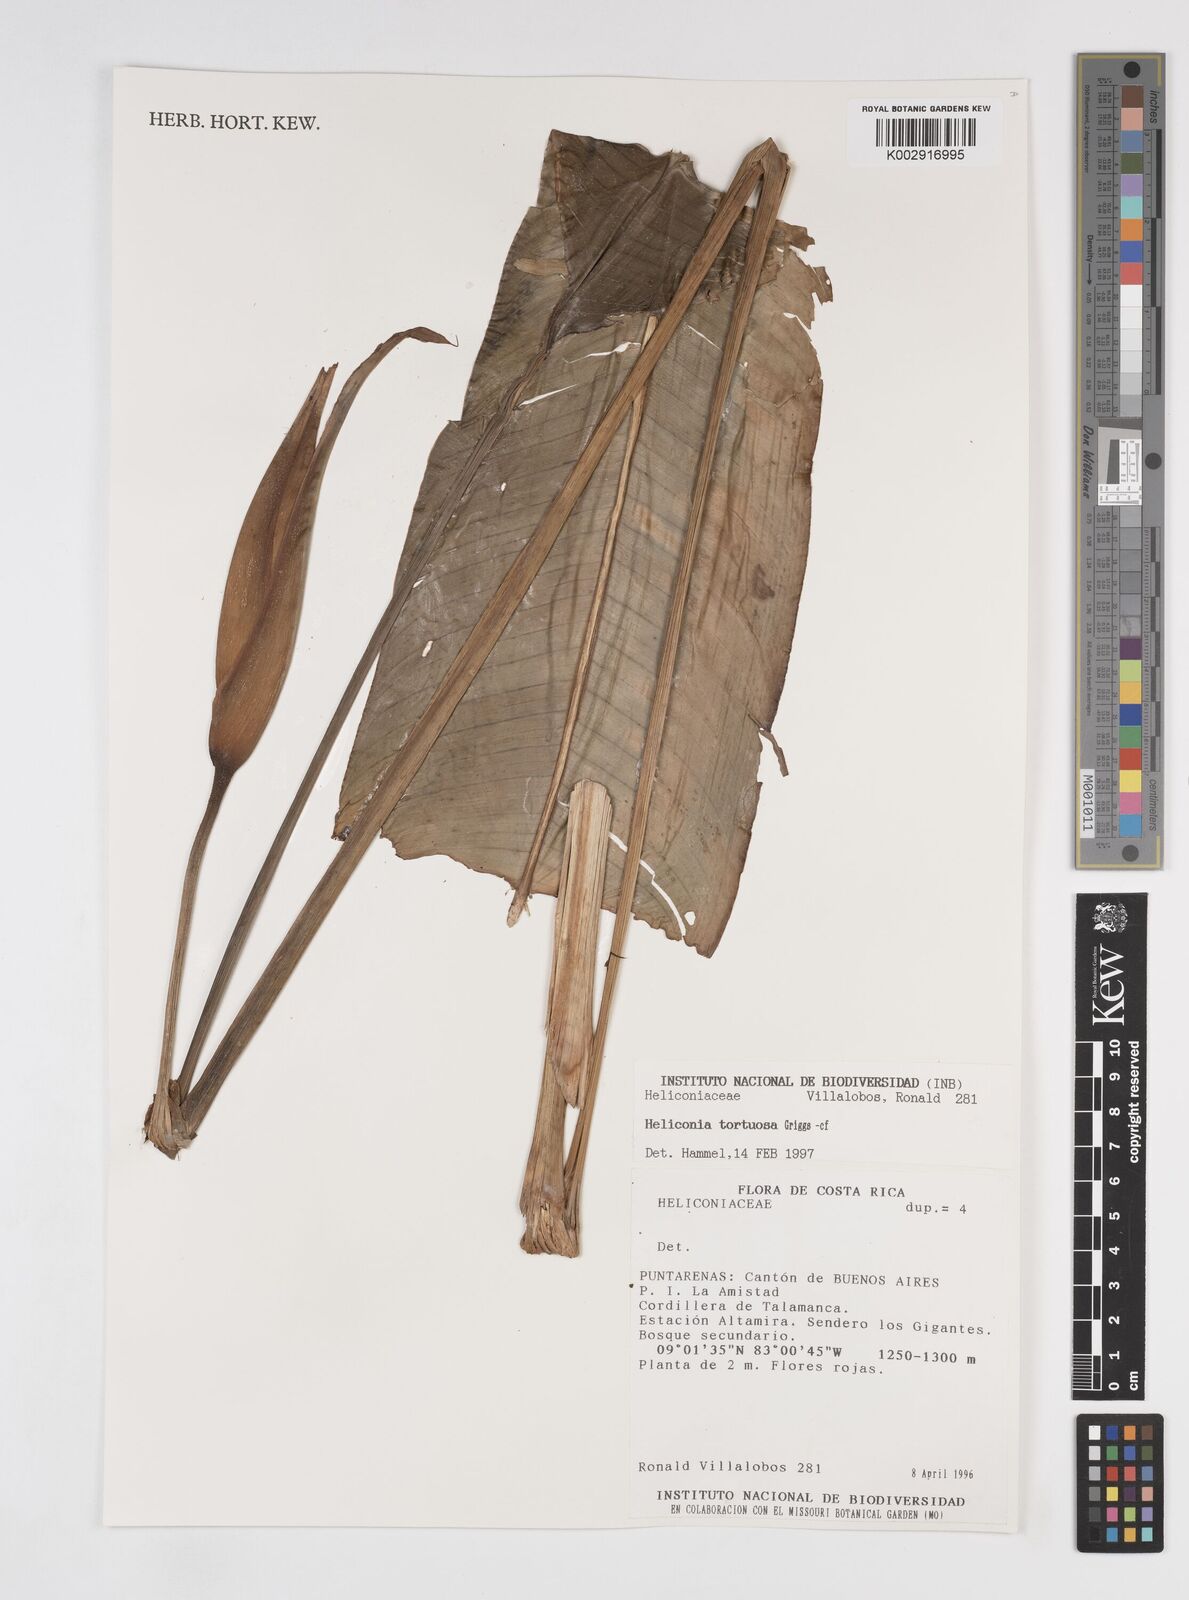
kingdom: Plantae
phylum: Tracheophyta
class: Liliopsida
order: Zingiberales
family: Heliconiaceae
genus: Heliconia
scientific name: Heliconia tortuosa
